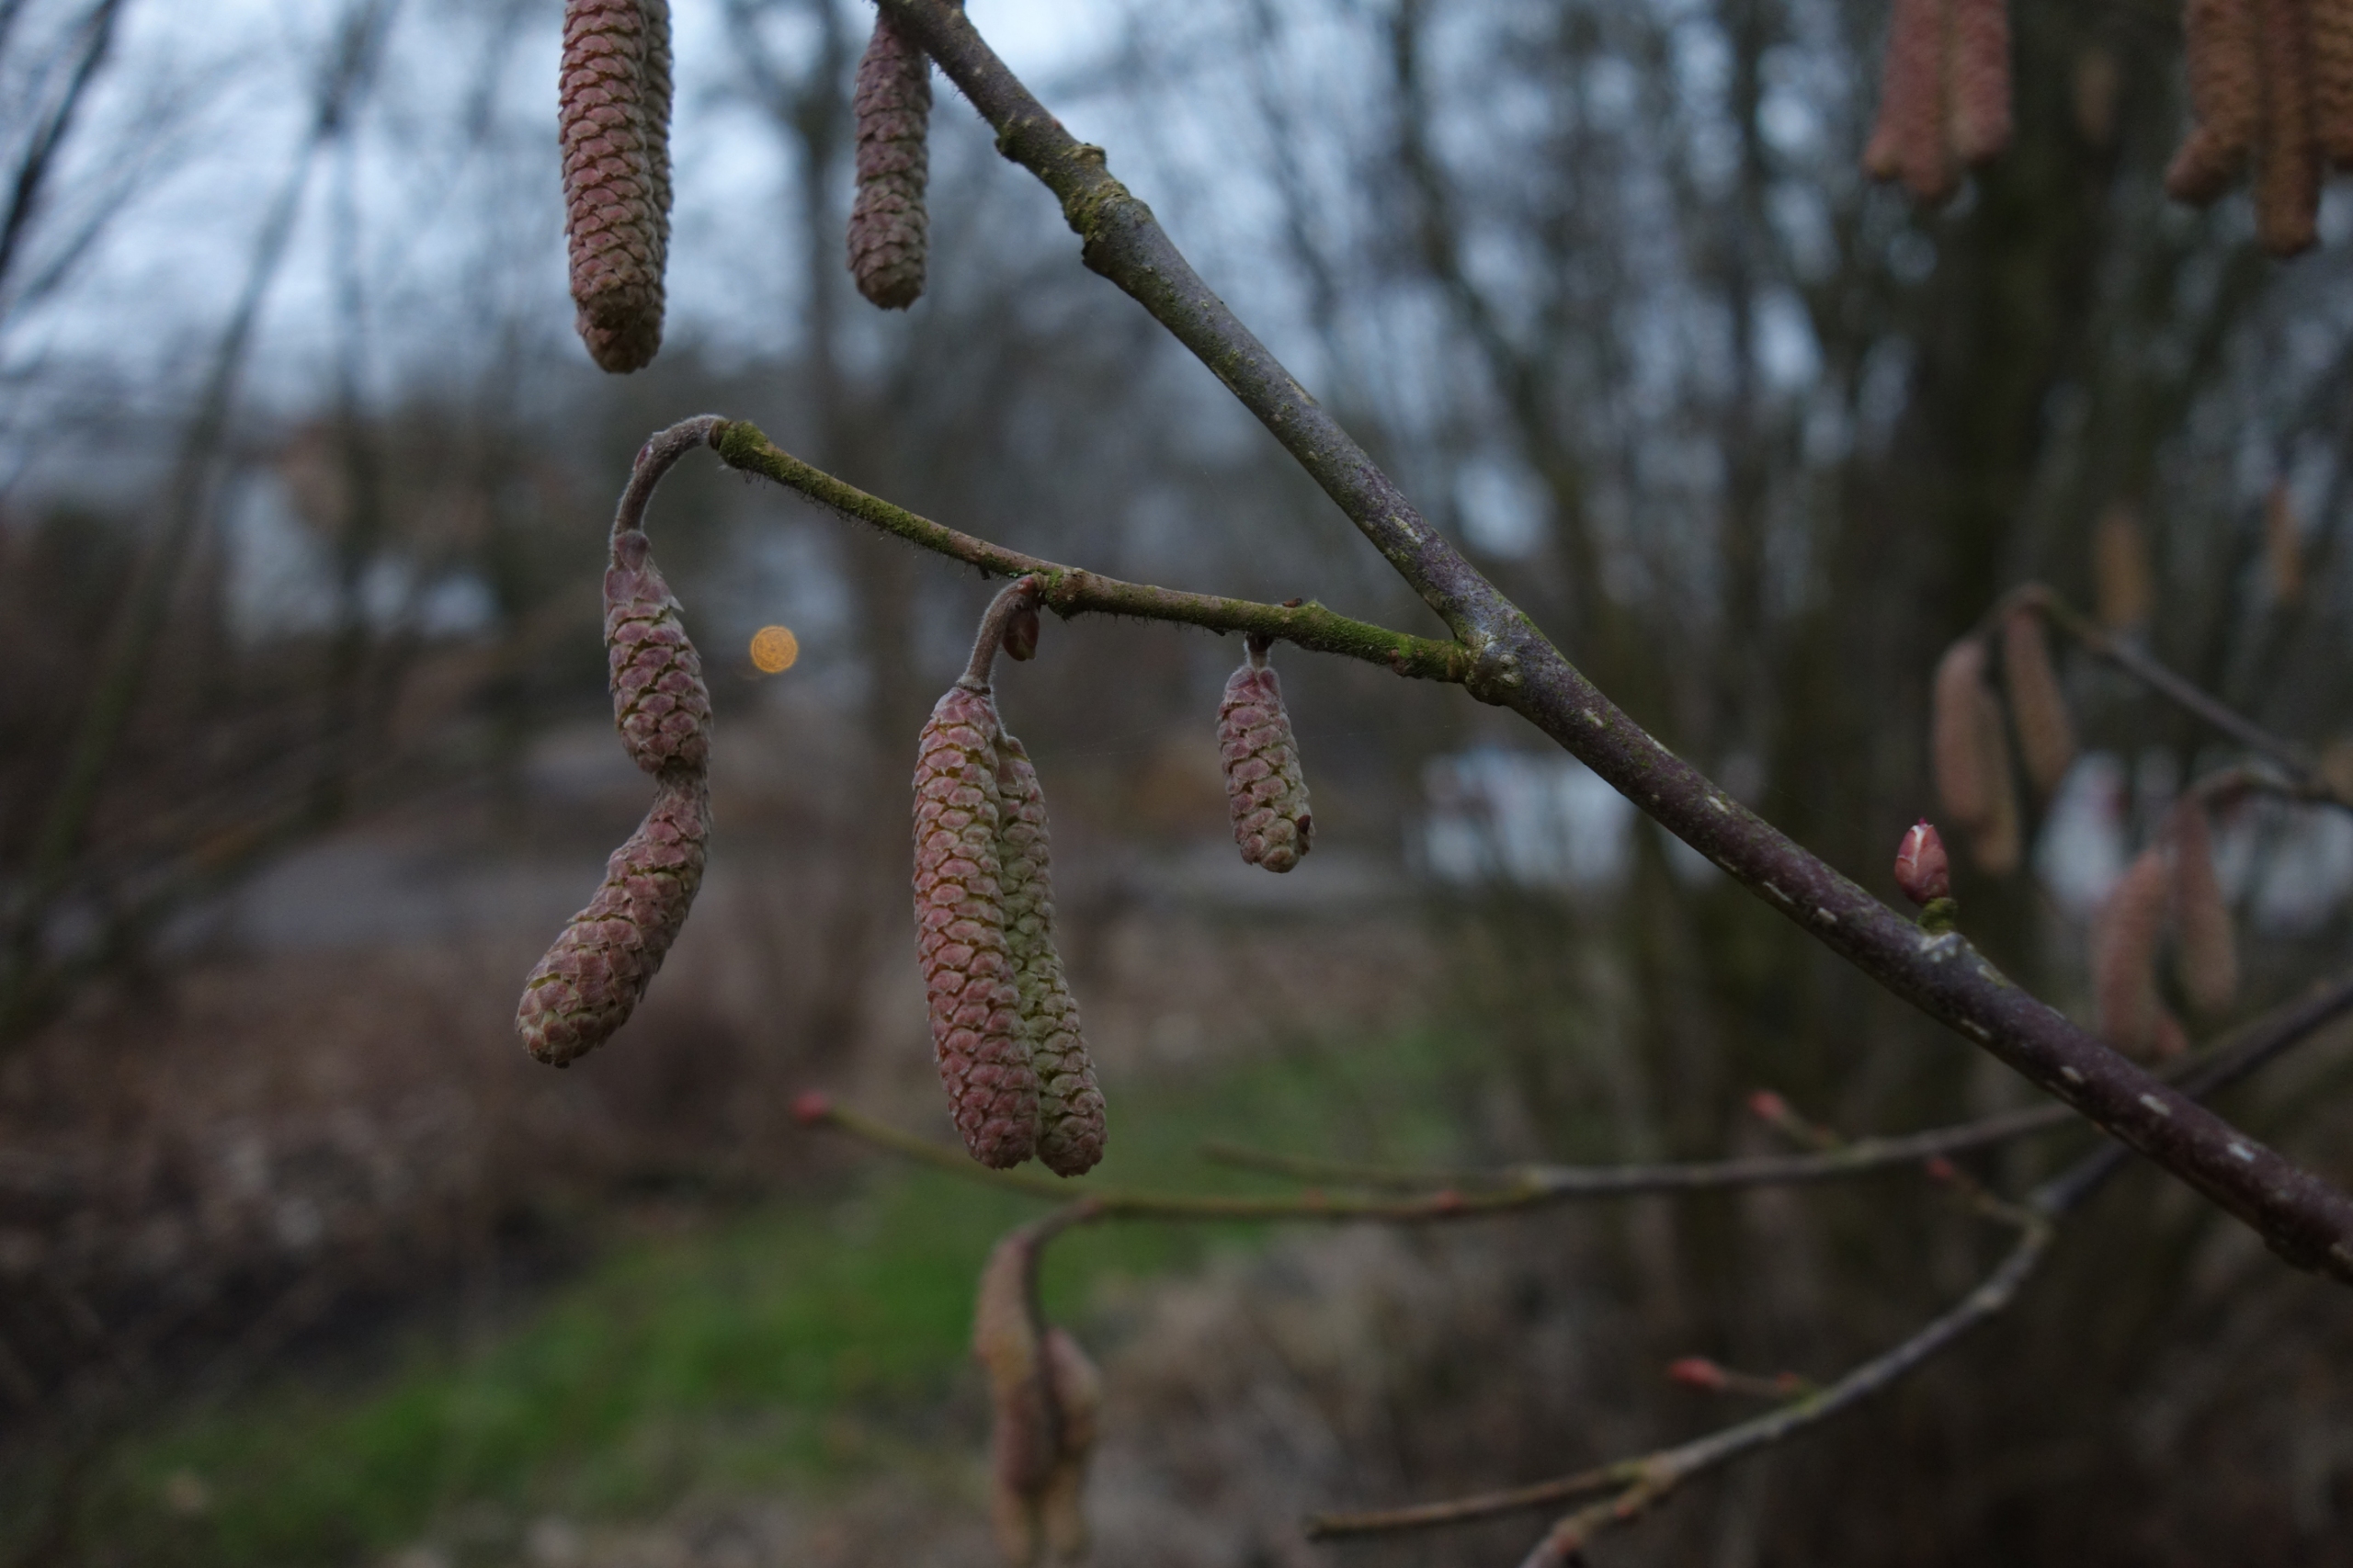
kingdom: Plantae
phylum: Tracheophyta
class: Magnoliopsida
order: Fagales
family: Betulaceae
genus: Corylus
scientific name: Corylus avellana
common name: Hassel
